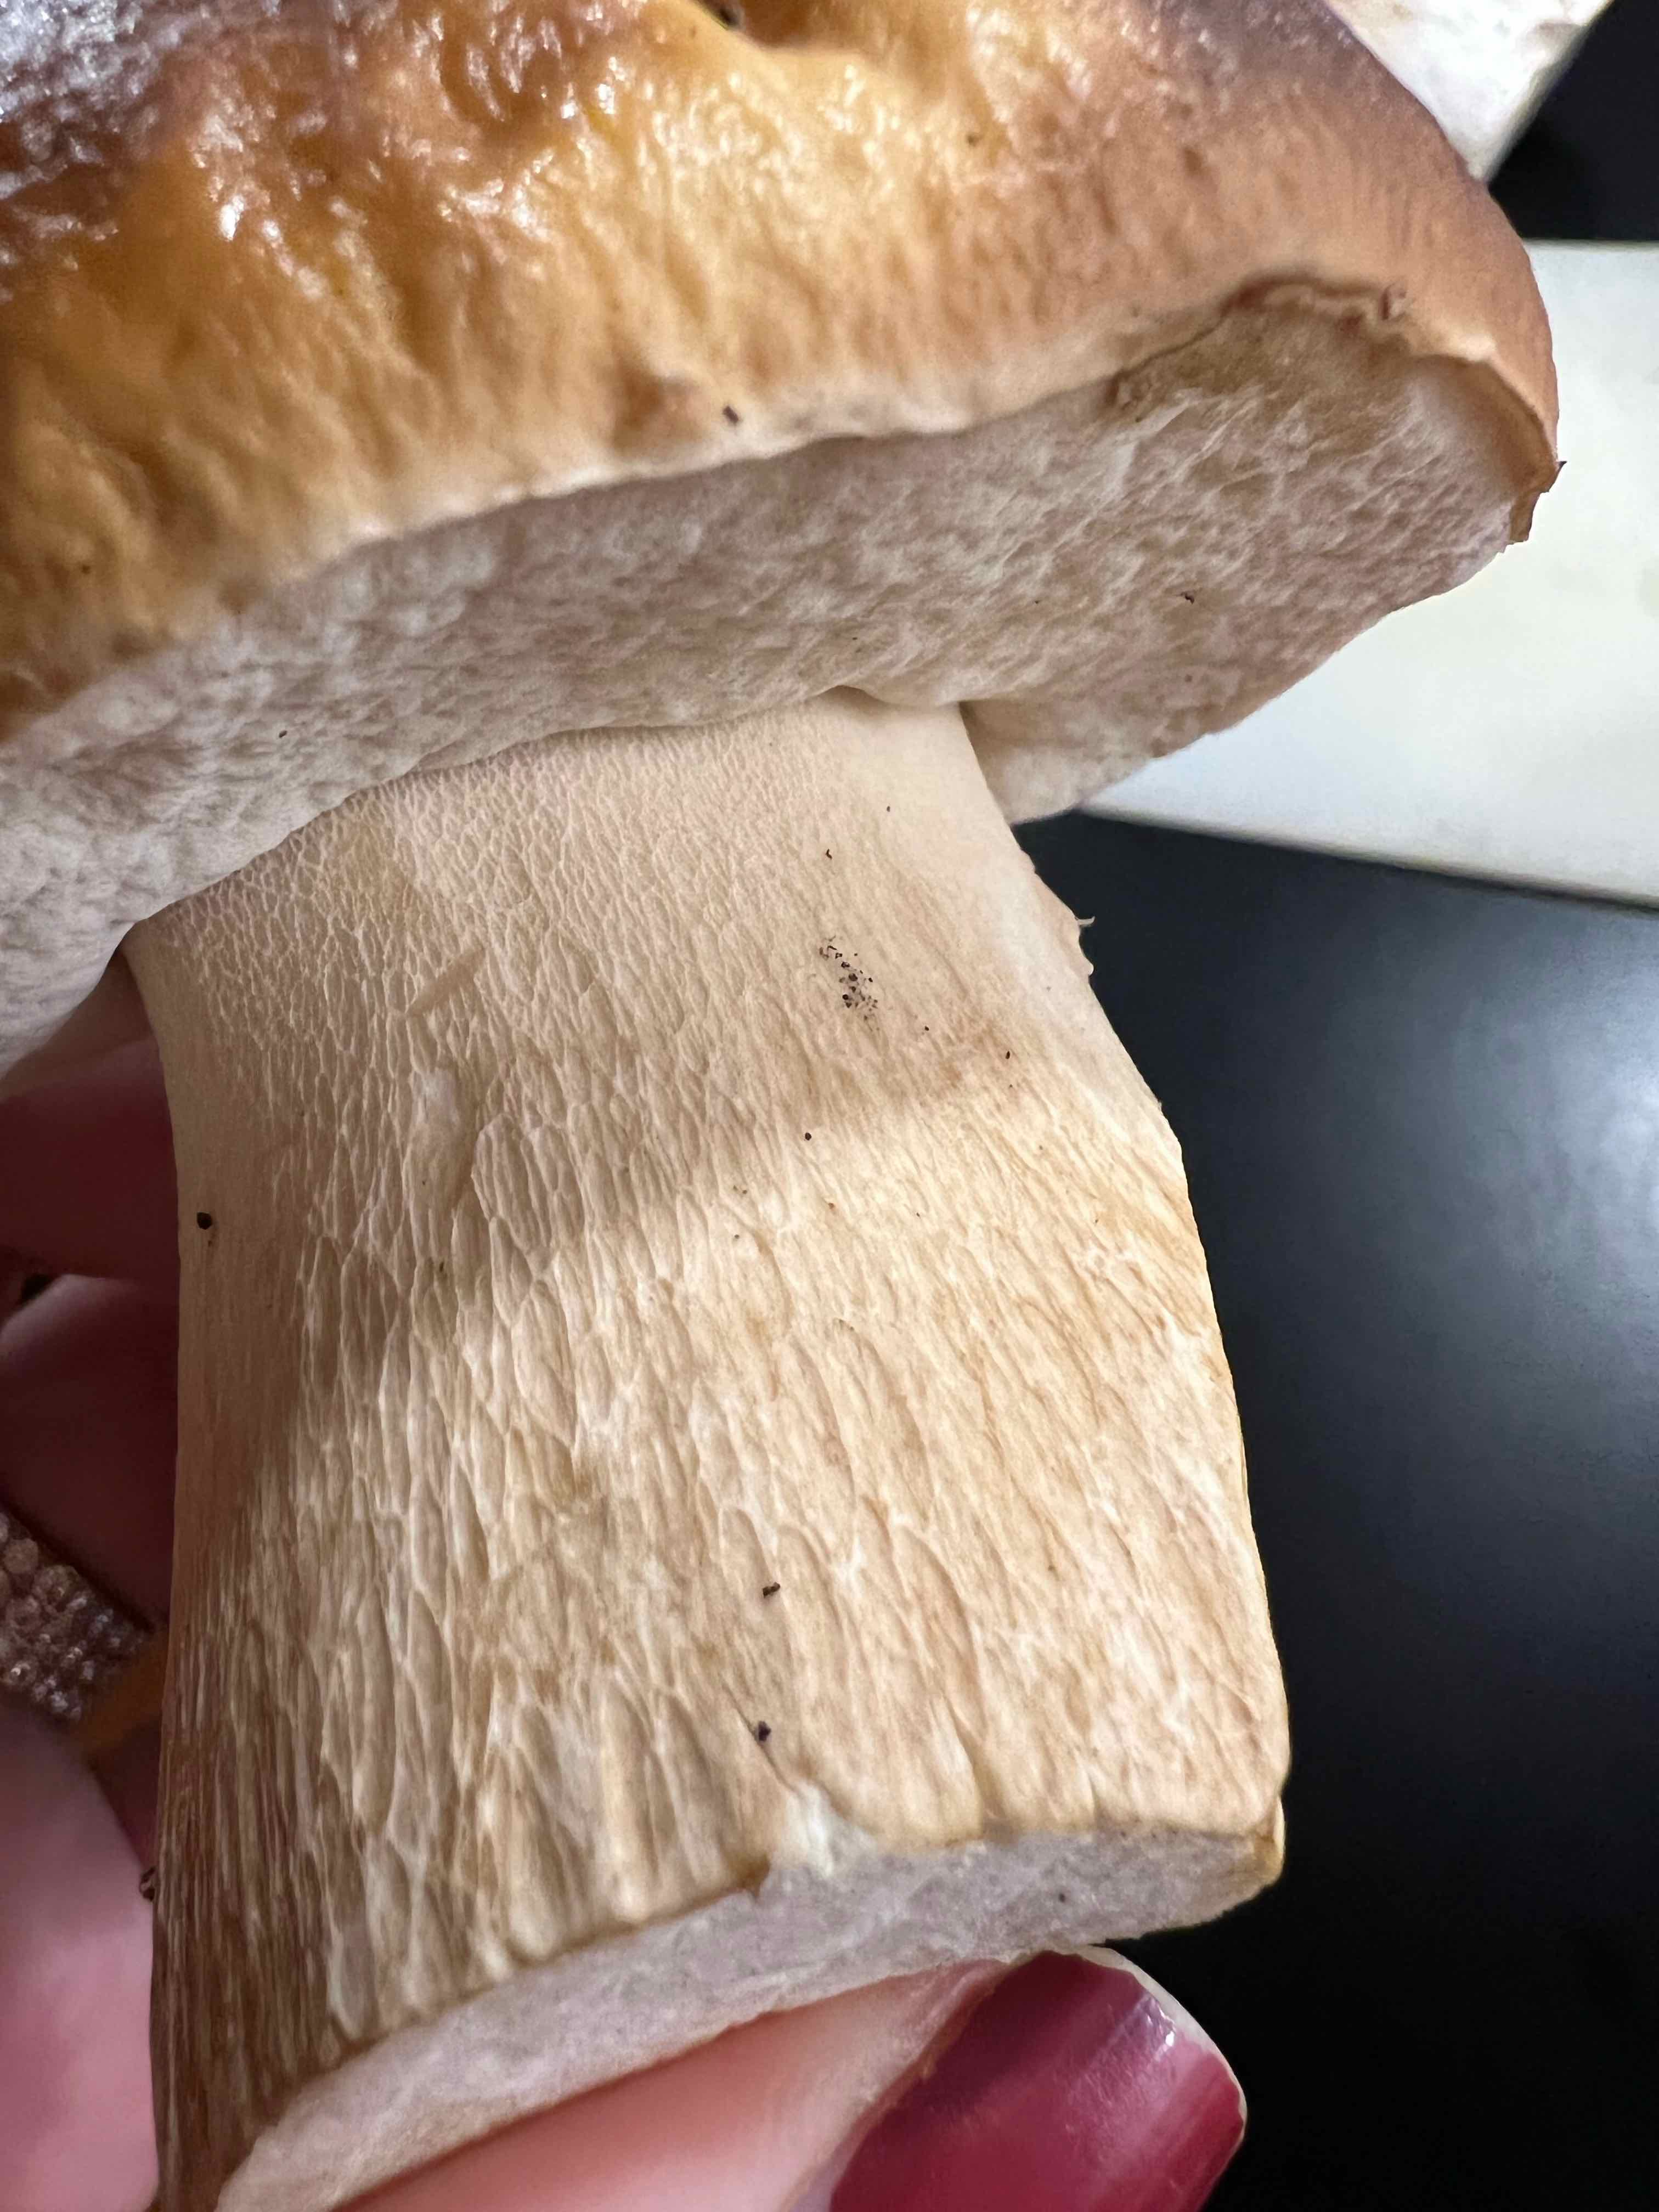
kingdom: Fungi
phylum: Basidiomycota
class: Agaricomycetes
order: Boletales
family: Boletaceae
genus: Boletus
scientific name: Boletus edulis
